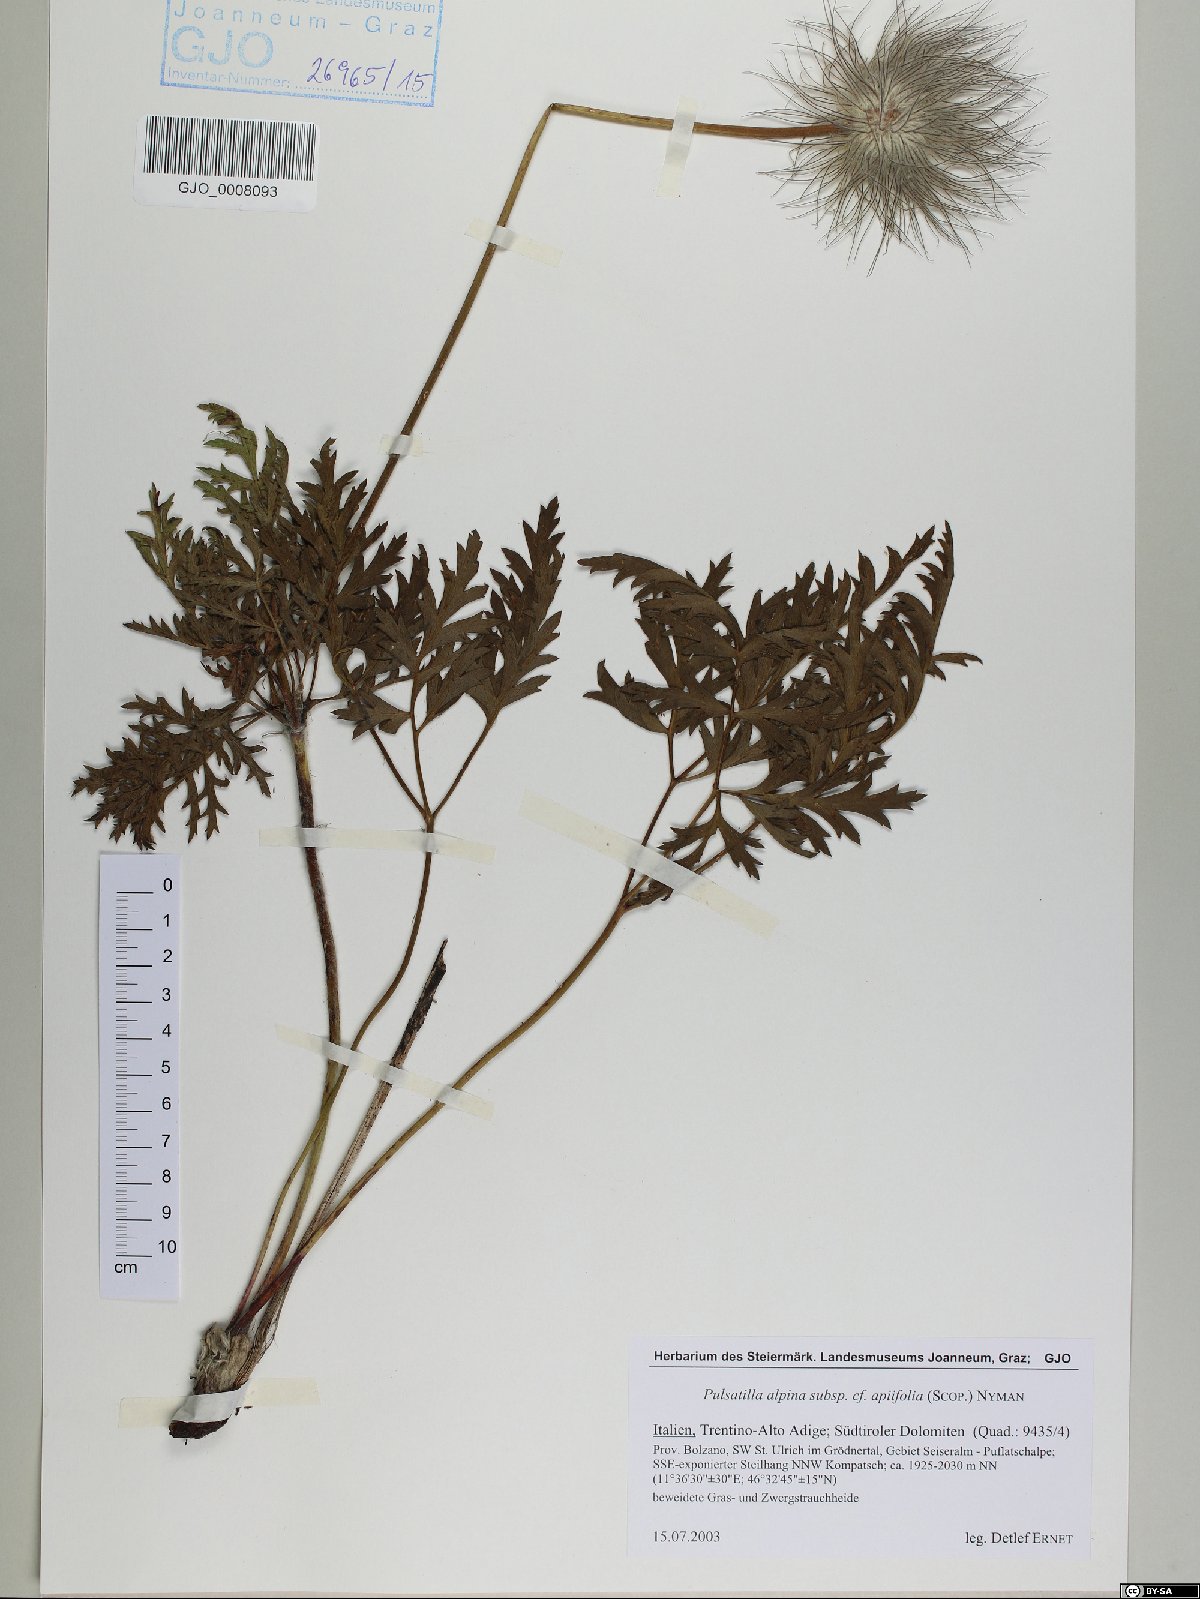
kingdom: Plantae
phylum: Tracheophyta
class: Magnoliopsida
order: Ranunculales
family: Ranunculaceae
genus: Pulsatilla
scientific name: Pulsatilla alpina
